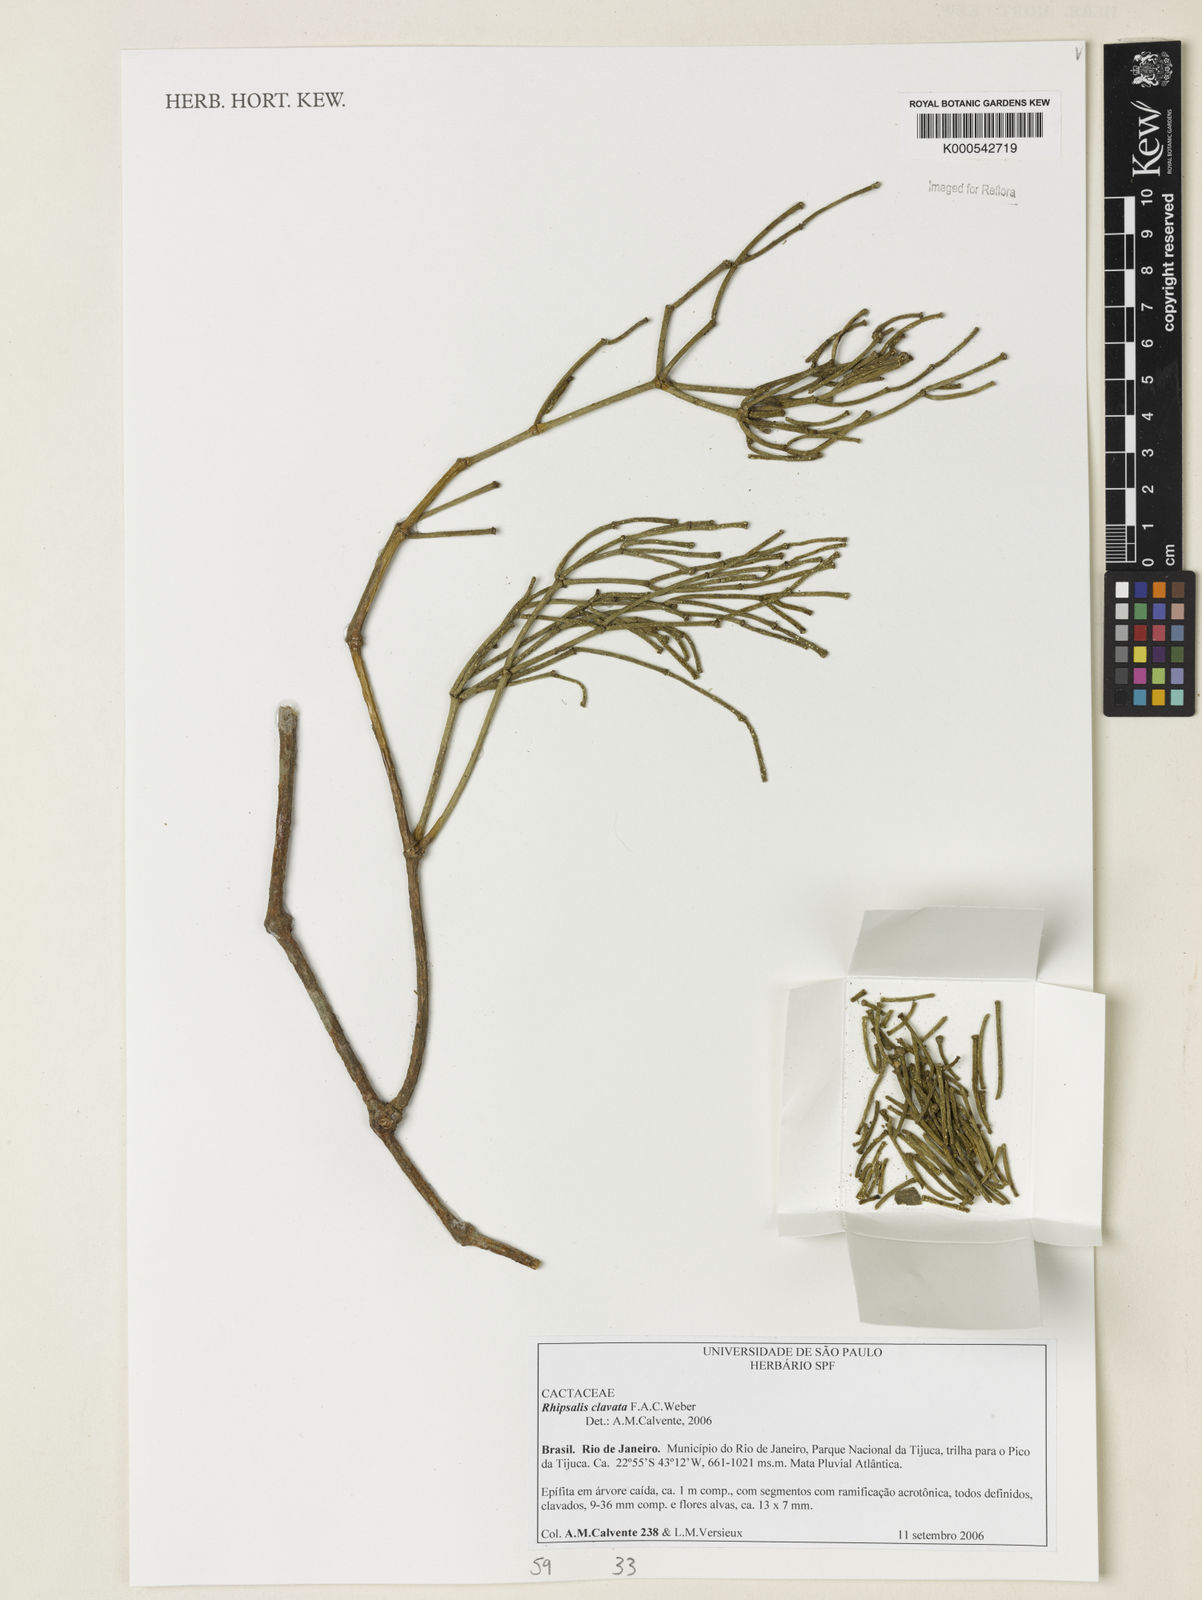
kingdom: Plantae
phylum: Tracheophyta
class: Magnoliopsida
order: Caryophyllales
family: Cactaceae
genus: Rhipsalis
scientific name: Rhipsalis clavata
